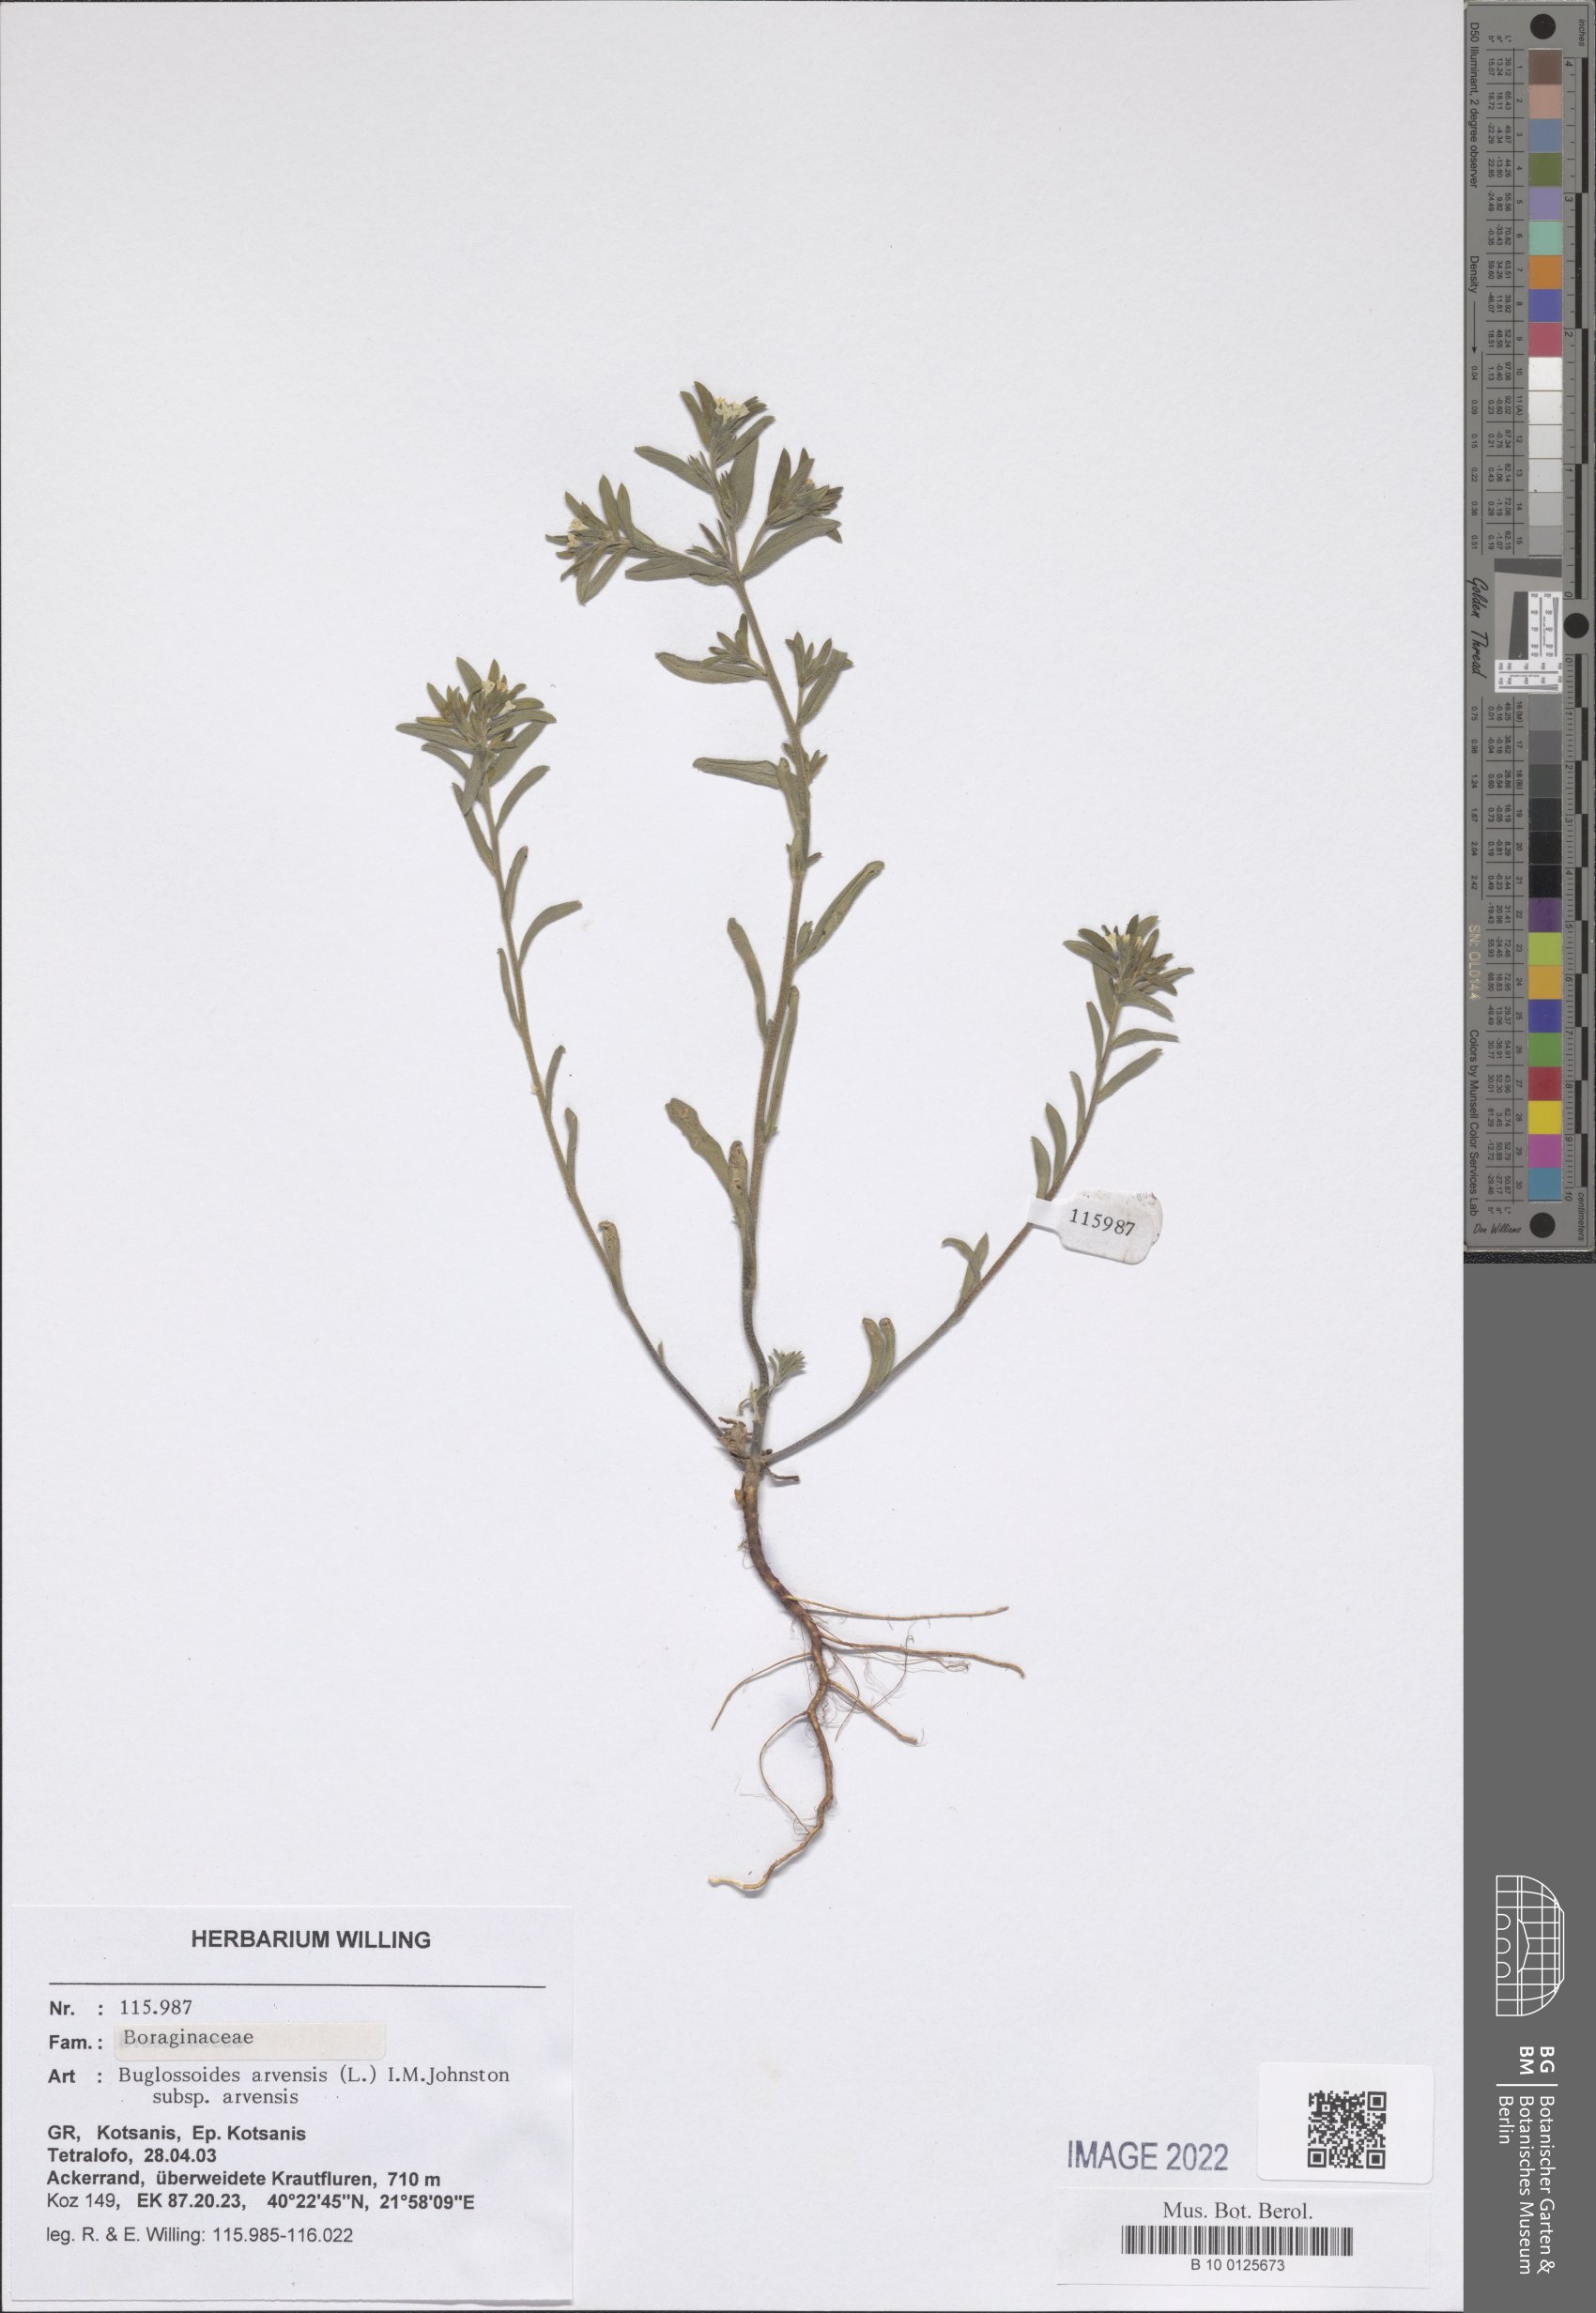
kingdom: Plantae
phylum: Tracheophyta
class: Magnoliopsida
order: Boraginales
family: Boraginaceae
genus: Buglossoides
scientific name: Buglossoides arvensis
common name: Corn gromwell
